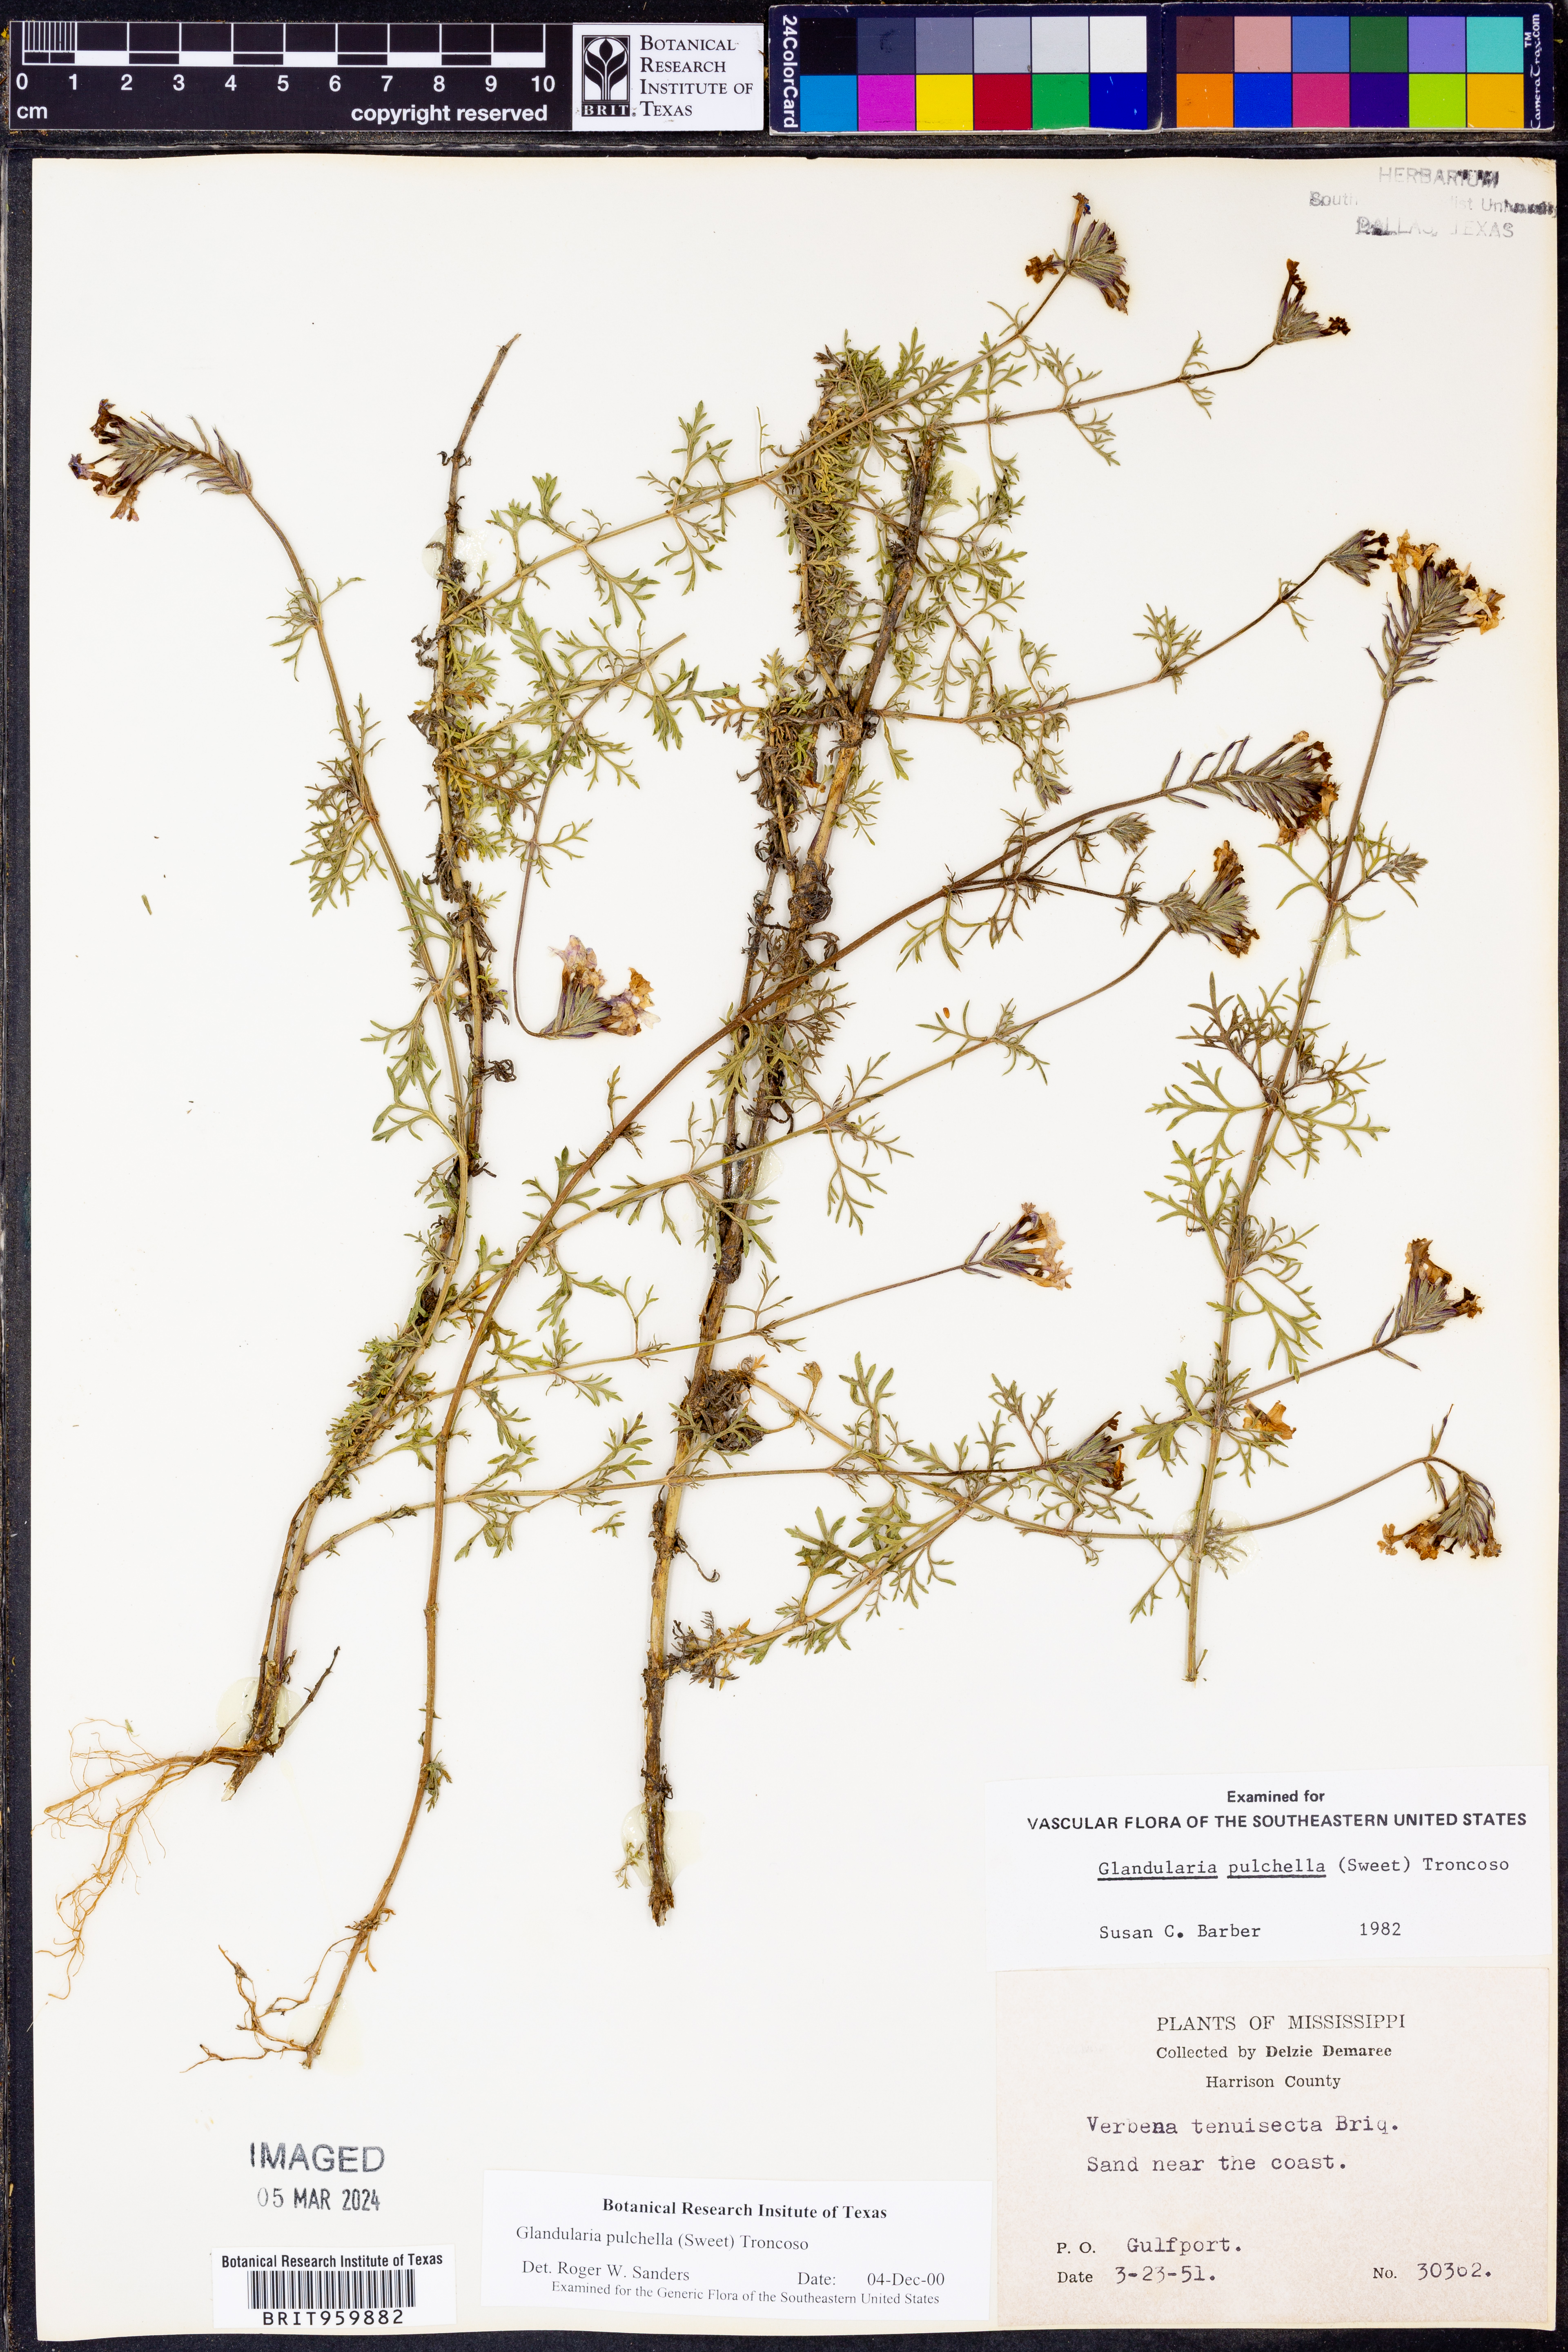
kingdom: Plantae
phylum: Tracheophyta
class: Magnoliopsida
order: Lamiales
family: Verbenaceae
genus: Verbena
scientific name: Verbena tenera
